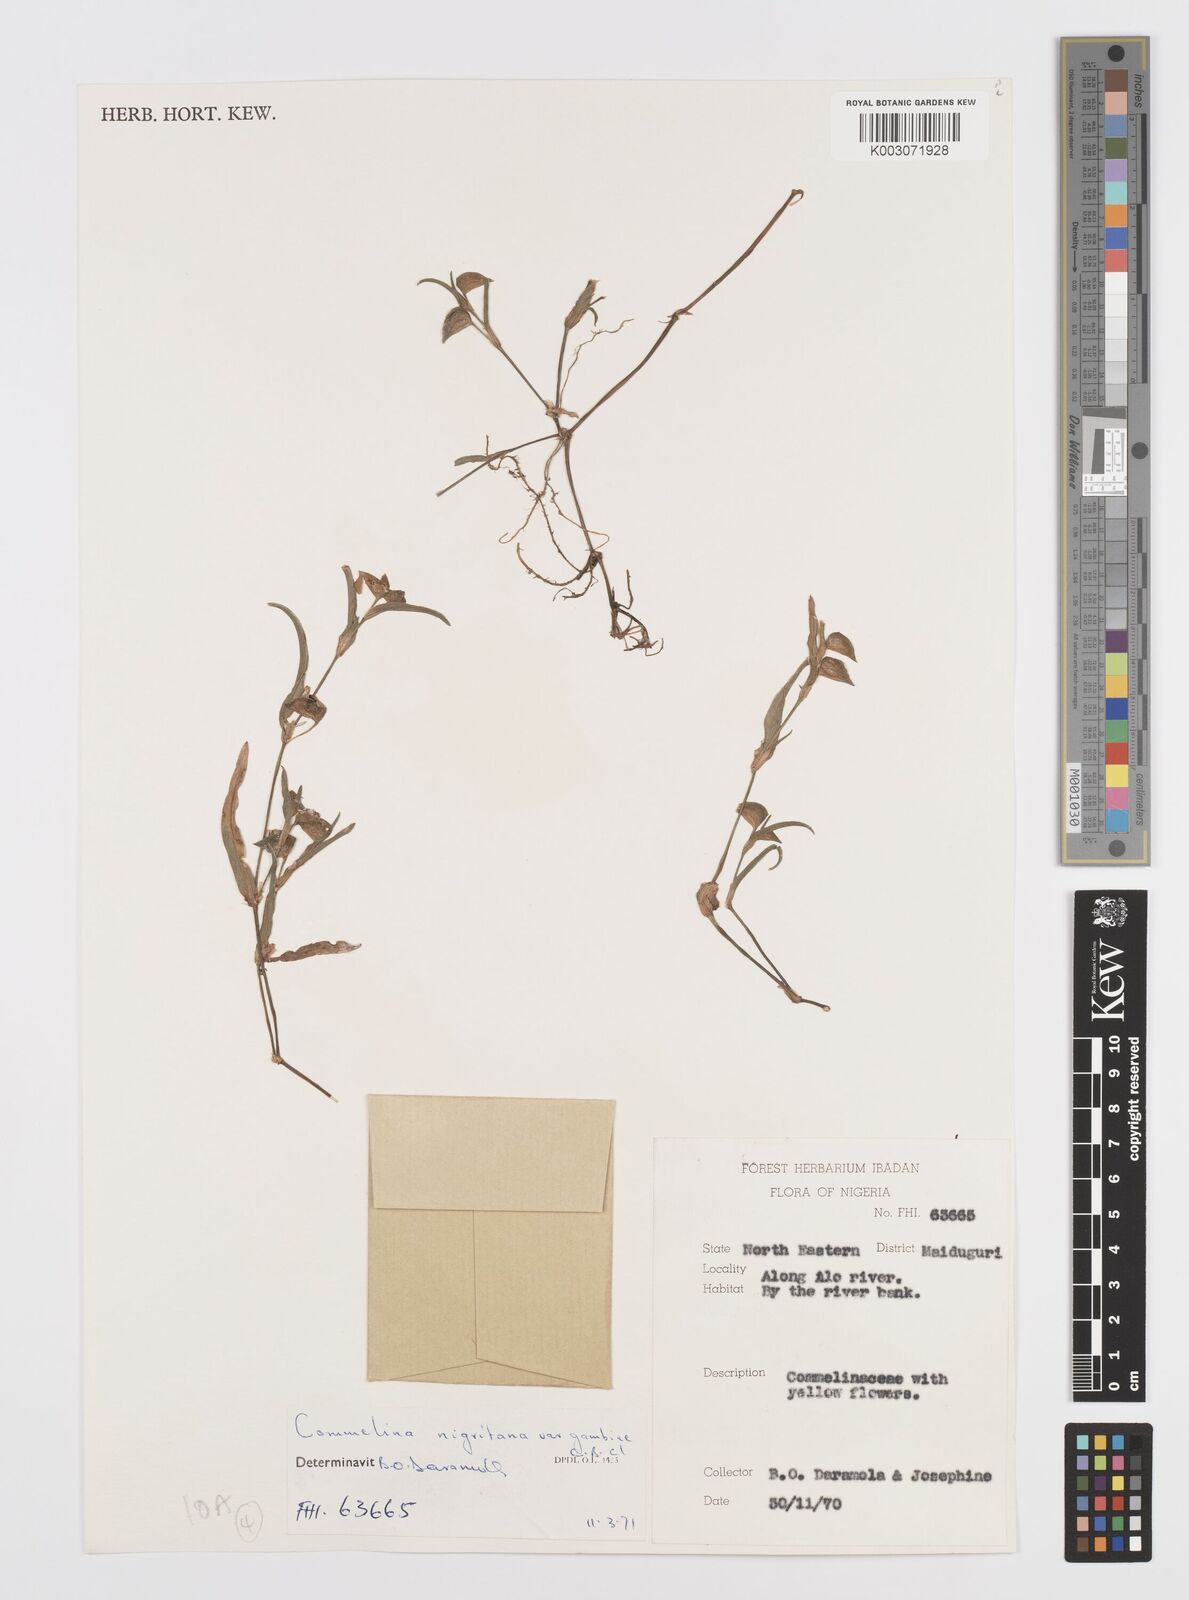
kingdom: Plantae
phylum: Tracheophyta
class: Liliopsida
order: Commelinales
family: Commelinaceae
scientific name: Commelinaceae
